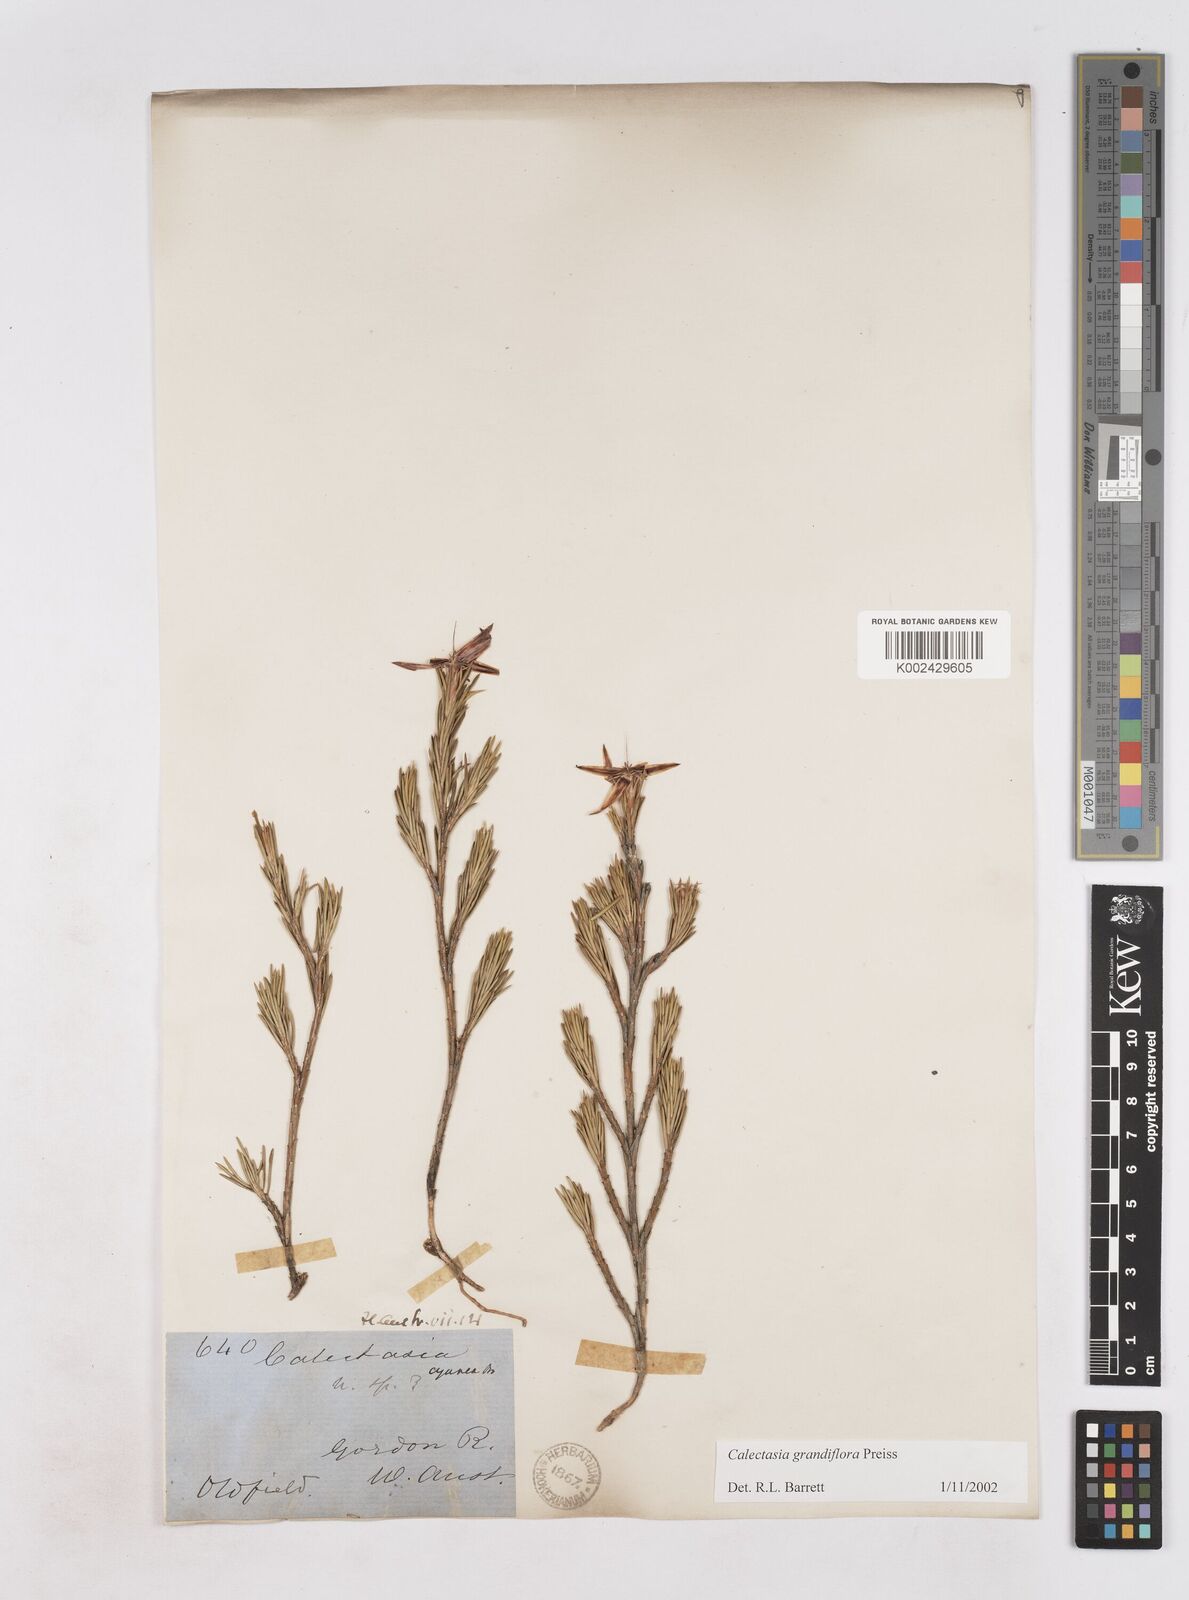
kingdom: Plantae
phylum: Tracheophyta
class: Liliopsida
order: Arecales
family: Dasypogonaceae
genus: Calectasia
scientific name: Calectasia grandiflora
